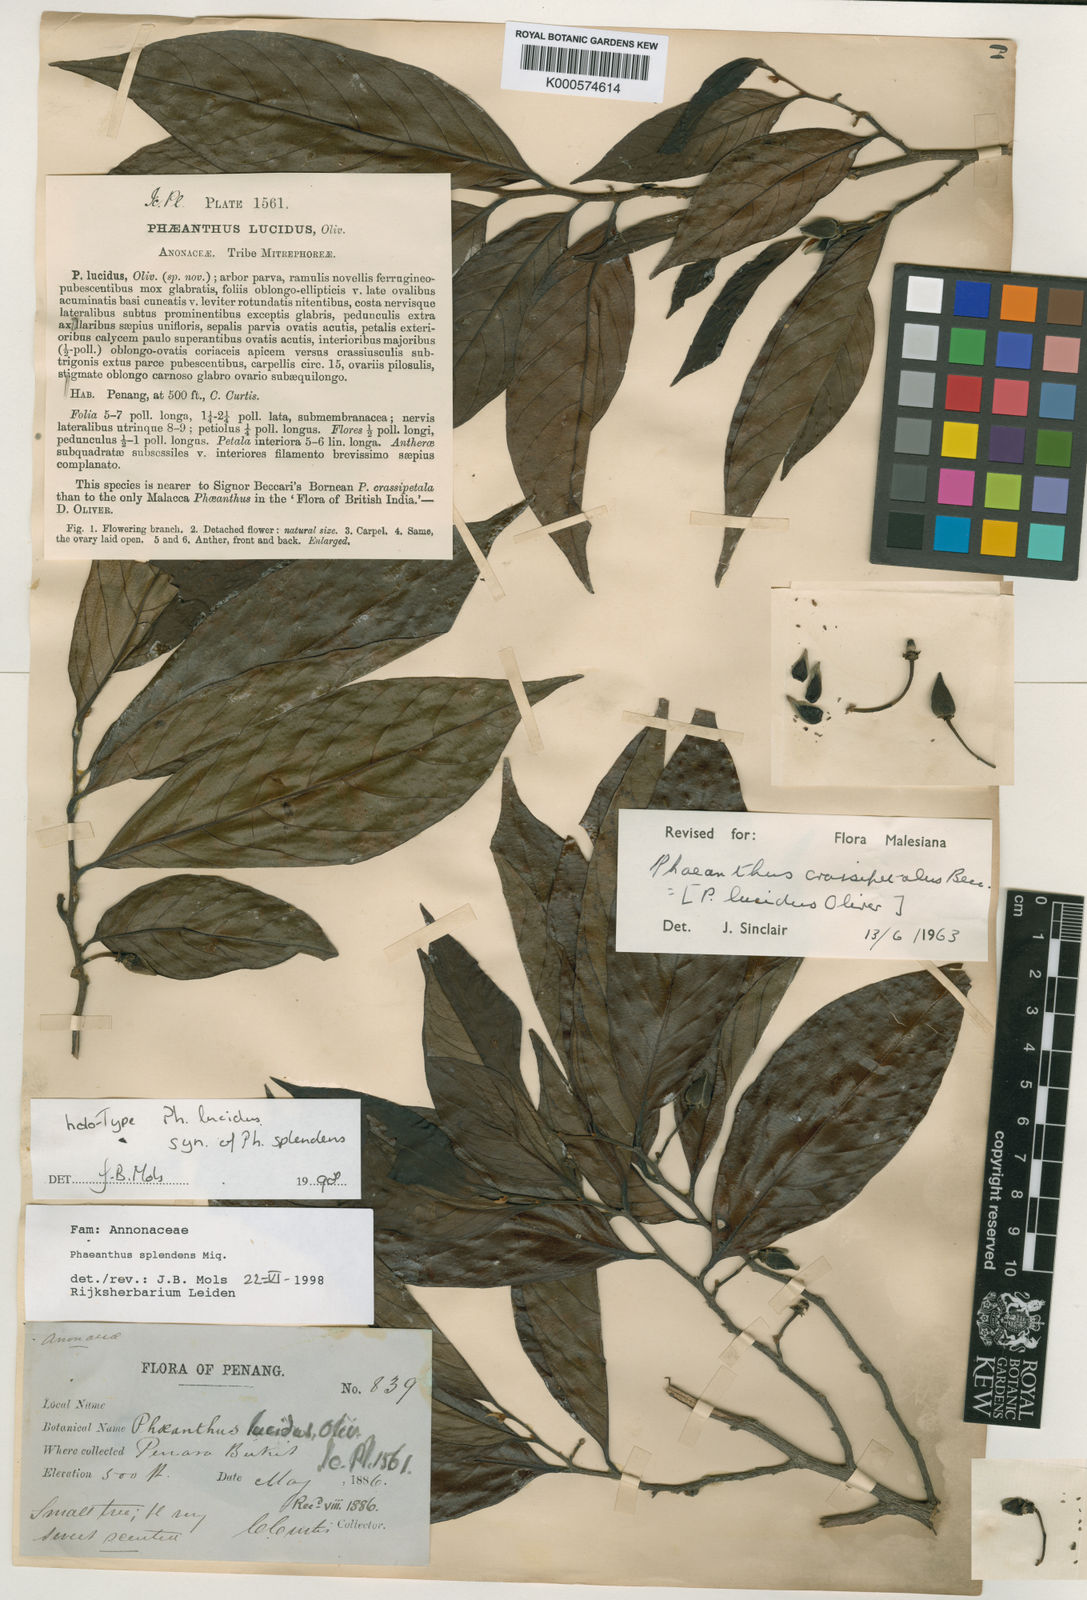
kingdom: Plantae
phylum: Tracheophyta
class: Magnoliopsida
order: Magnoliales
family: Annonaceae
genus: Phaeanthus
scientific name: Phaeanthus splendens
